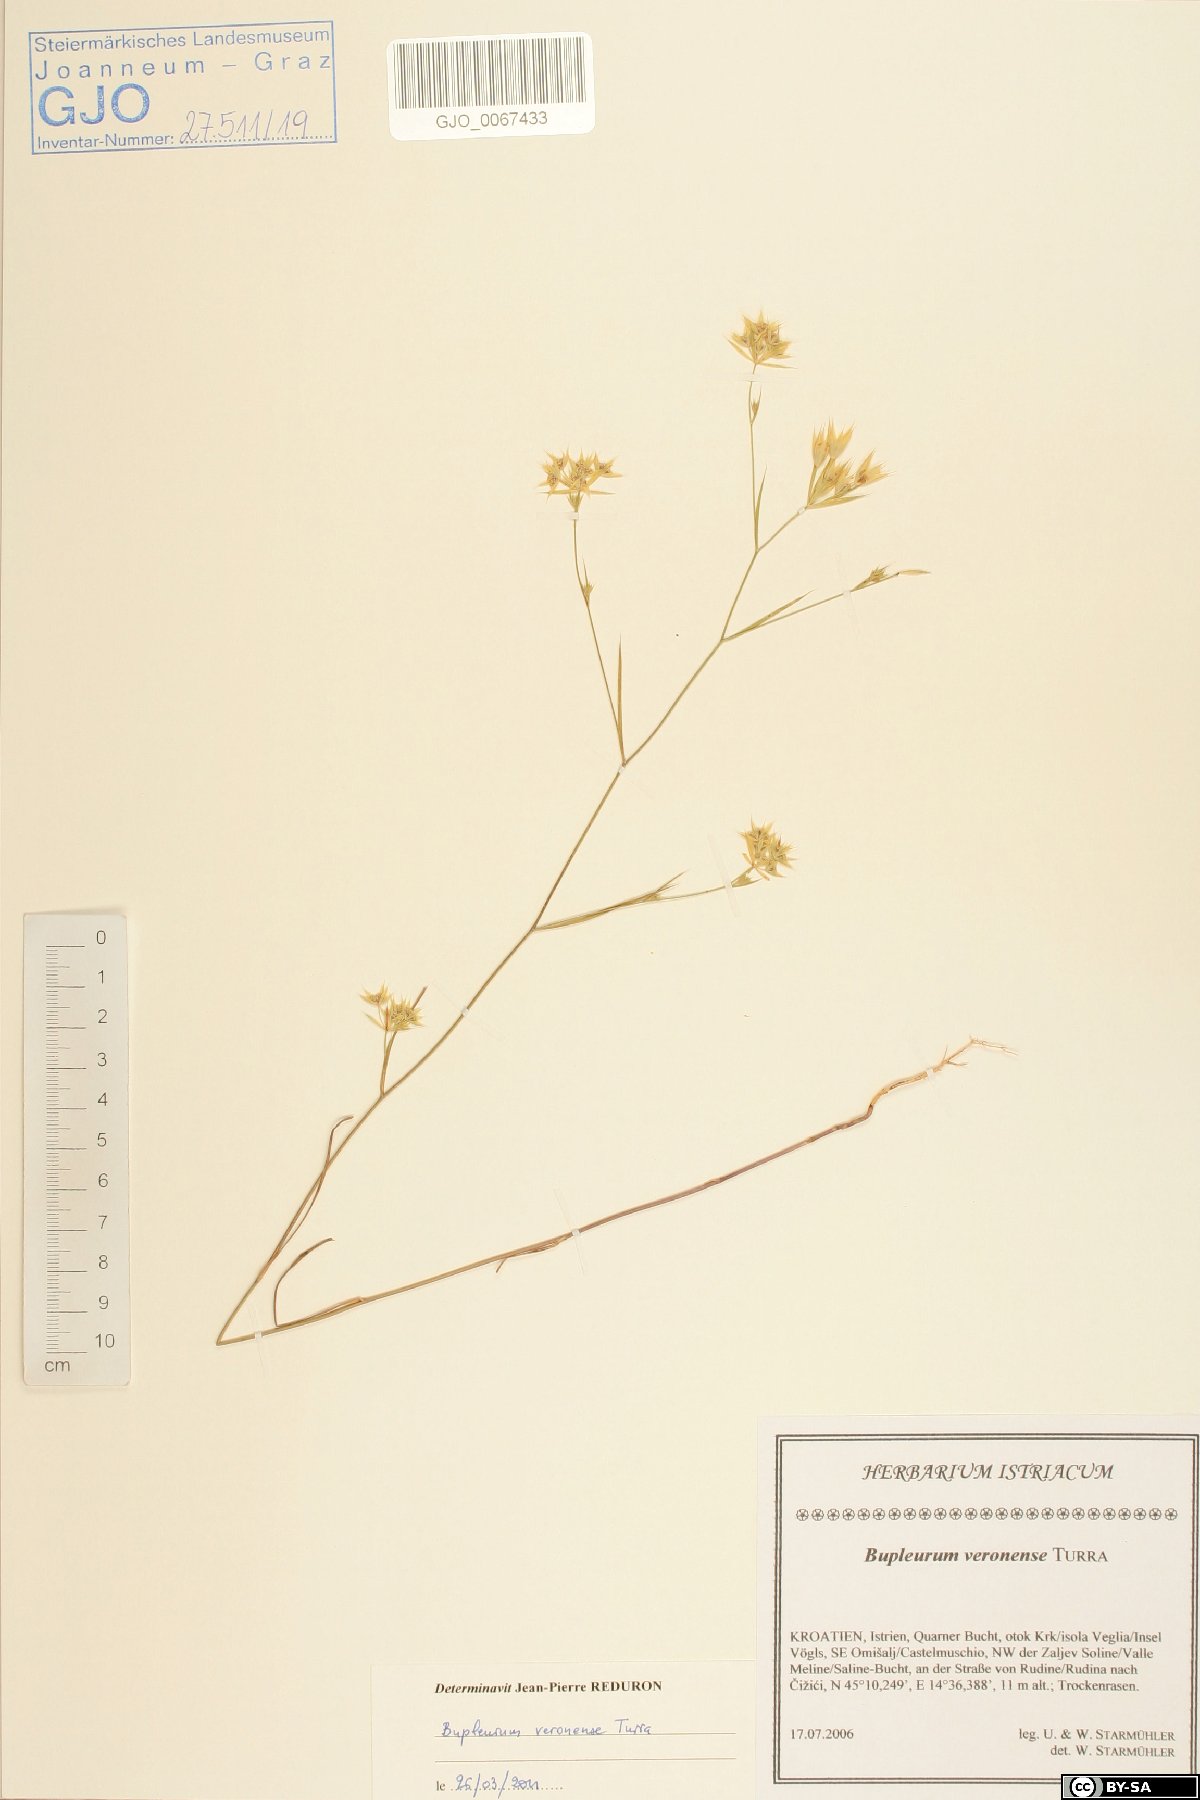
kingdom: Plantae
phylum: Tracheophyta
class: Magnoliopsida
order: Apiales
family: Apiaceae
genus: Bupleurum
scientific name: Bupleurum veronense
